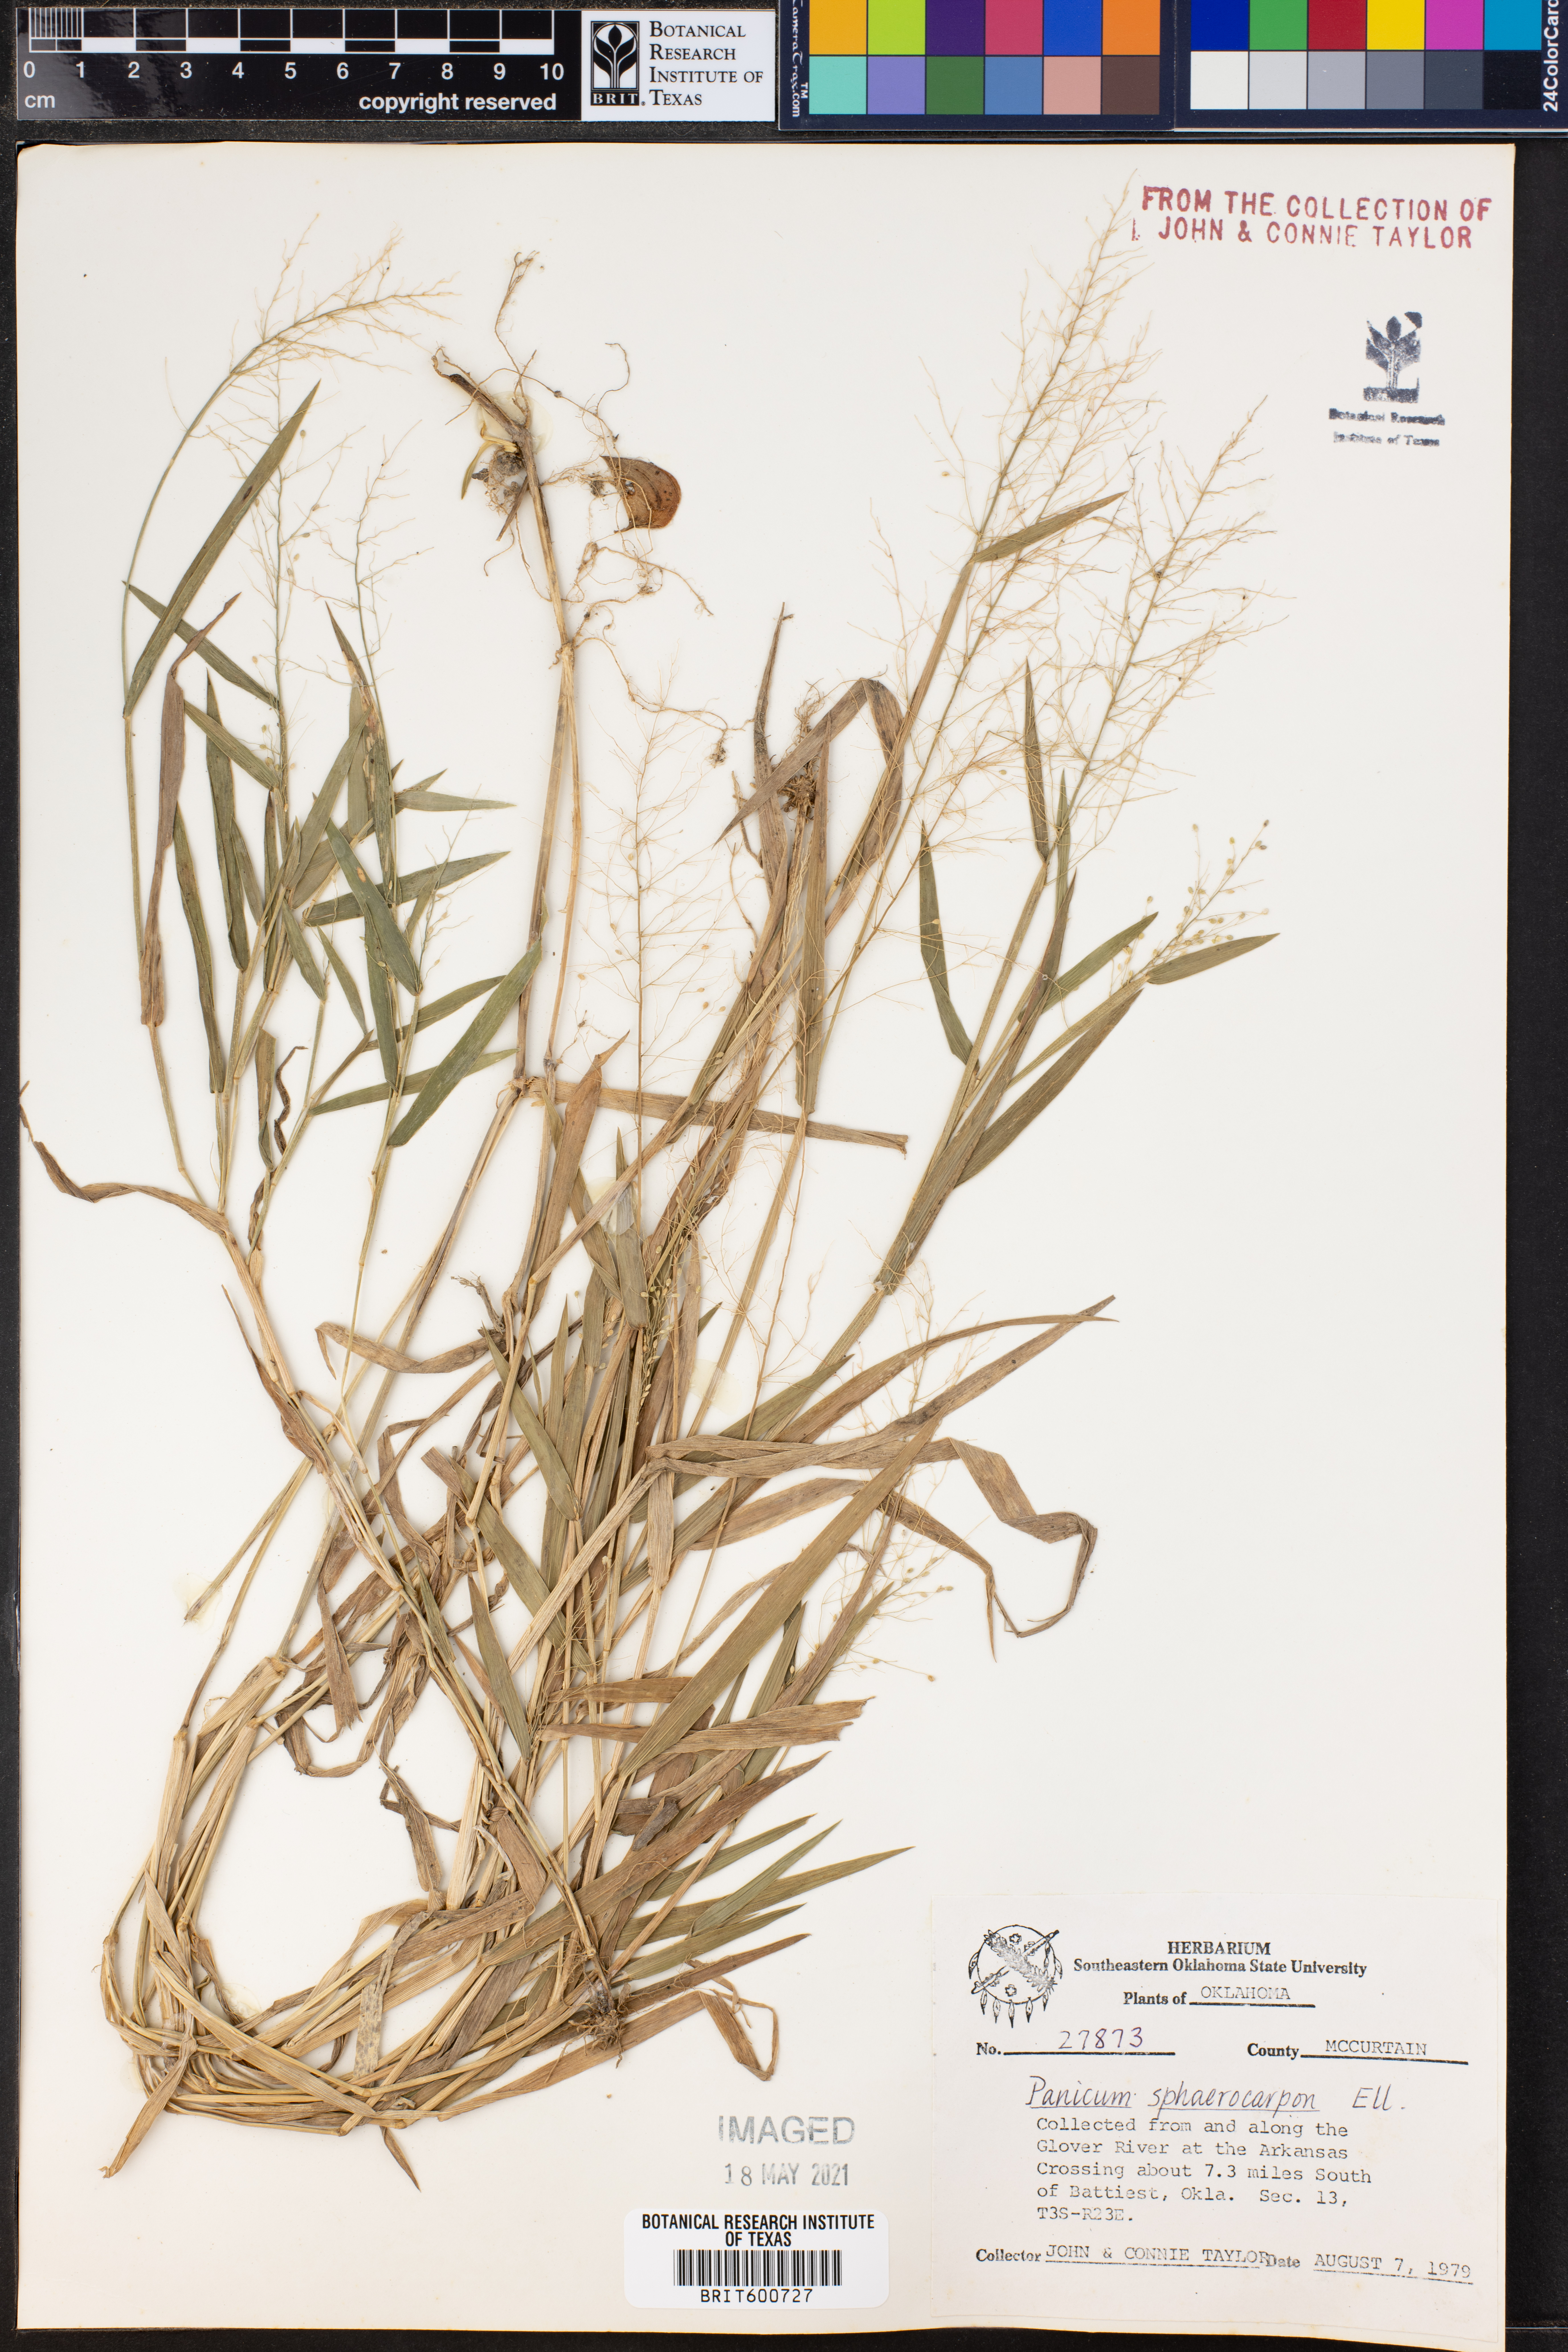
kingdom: Plantae
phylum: Tracheophyta
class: Liliopsida
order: Poales
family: Poaceae
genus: Dichanthelium
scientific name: Dichanthelium sphaerocarpon
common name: Round-fruited panicgrass
